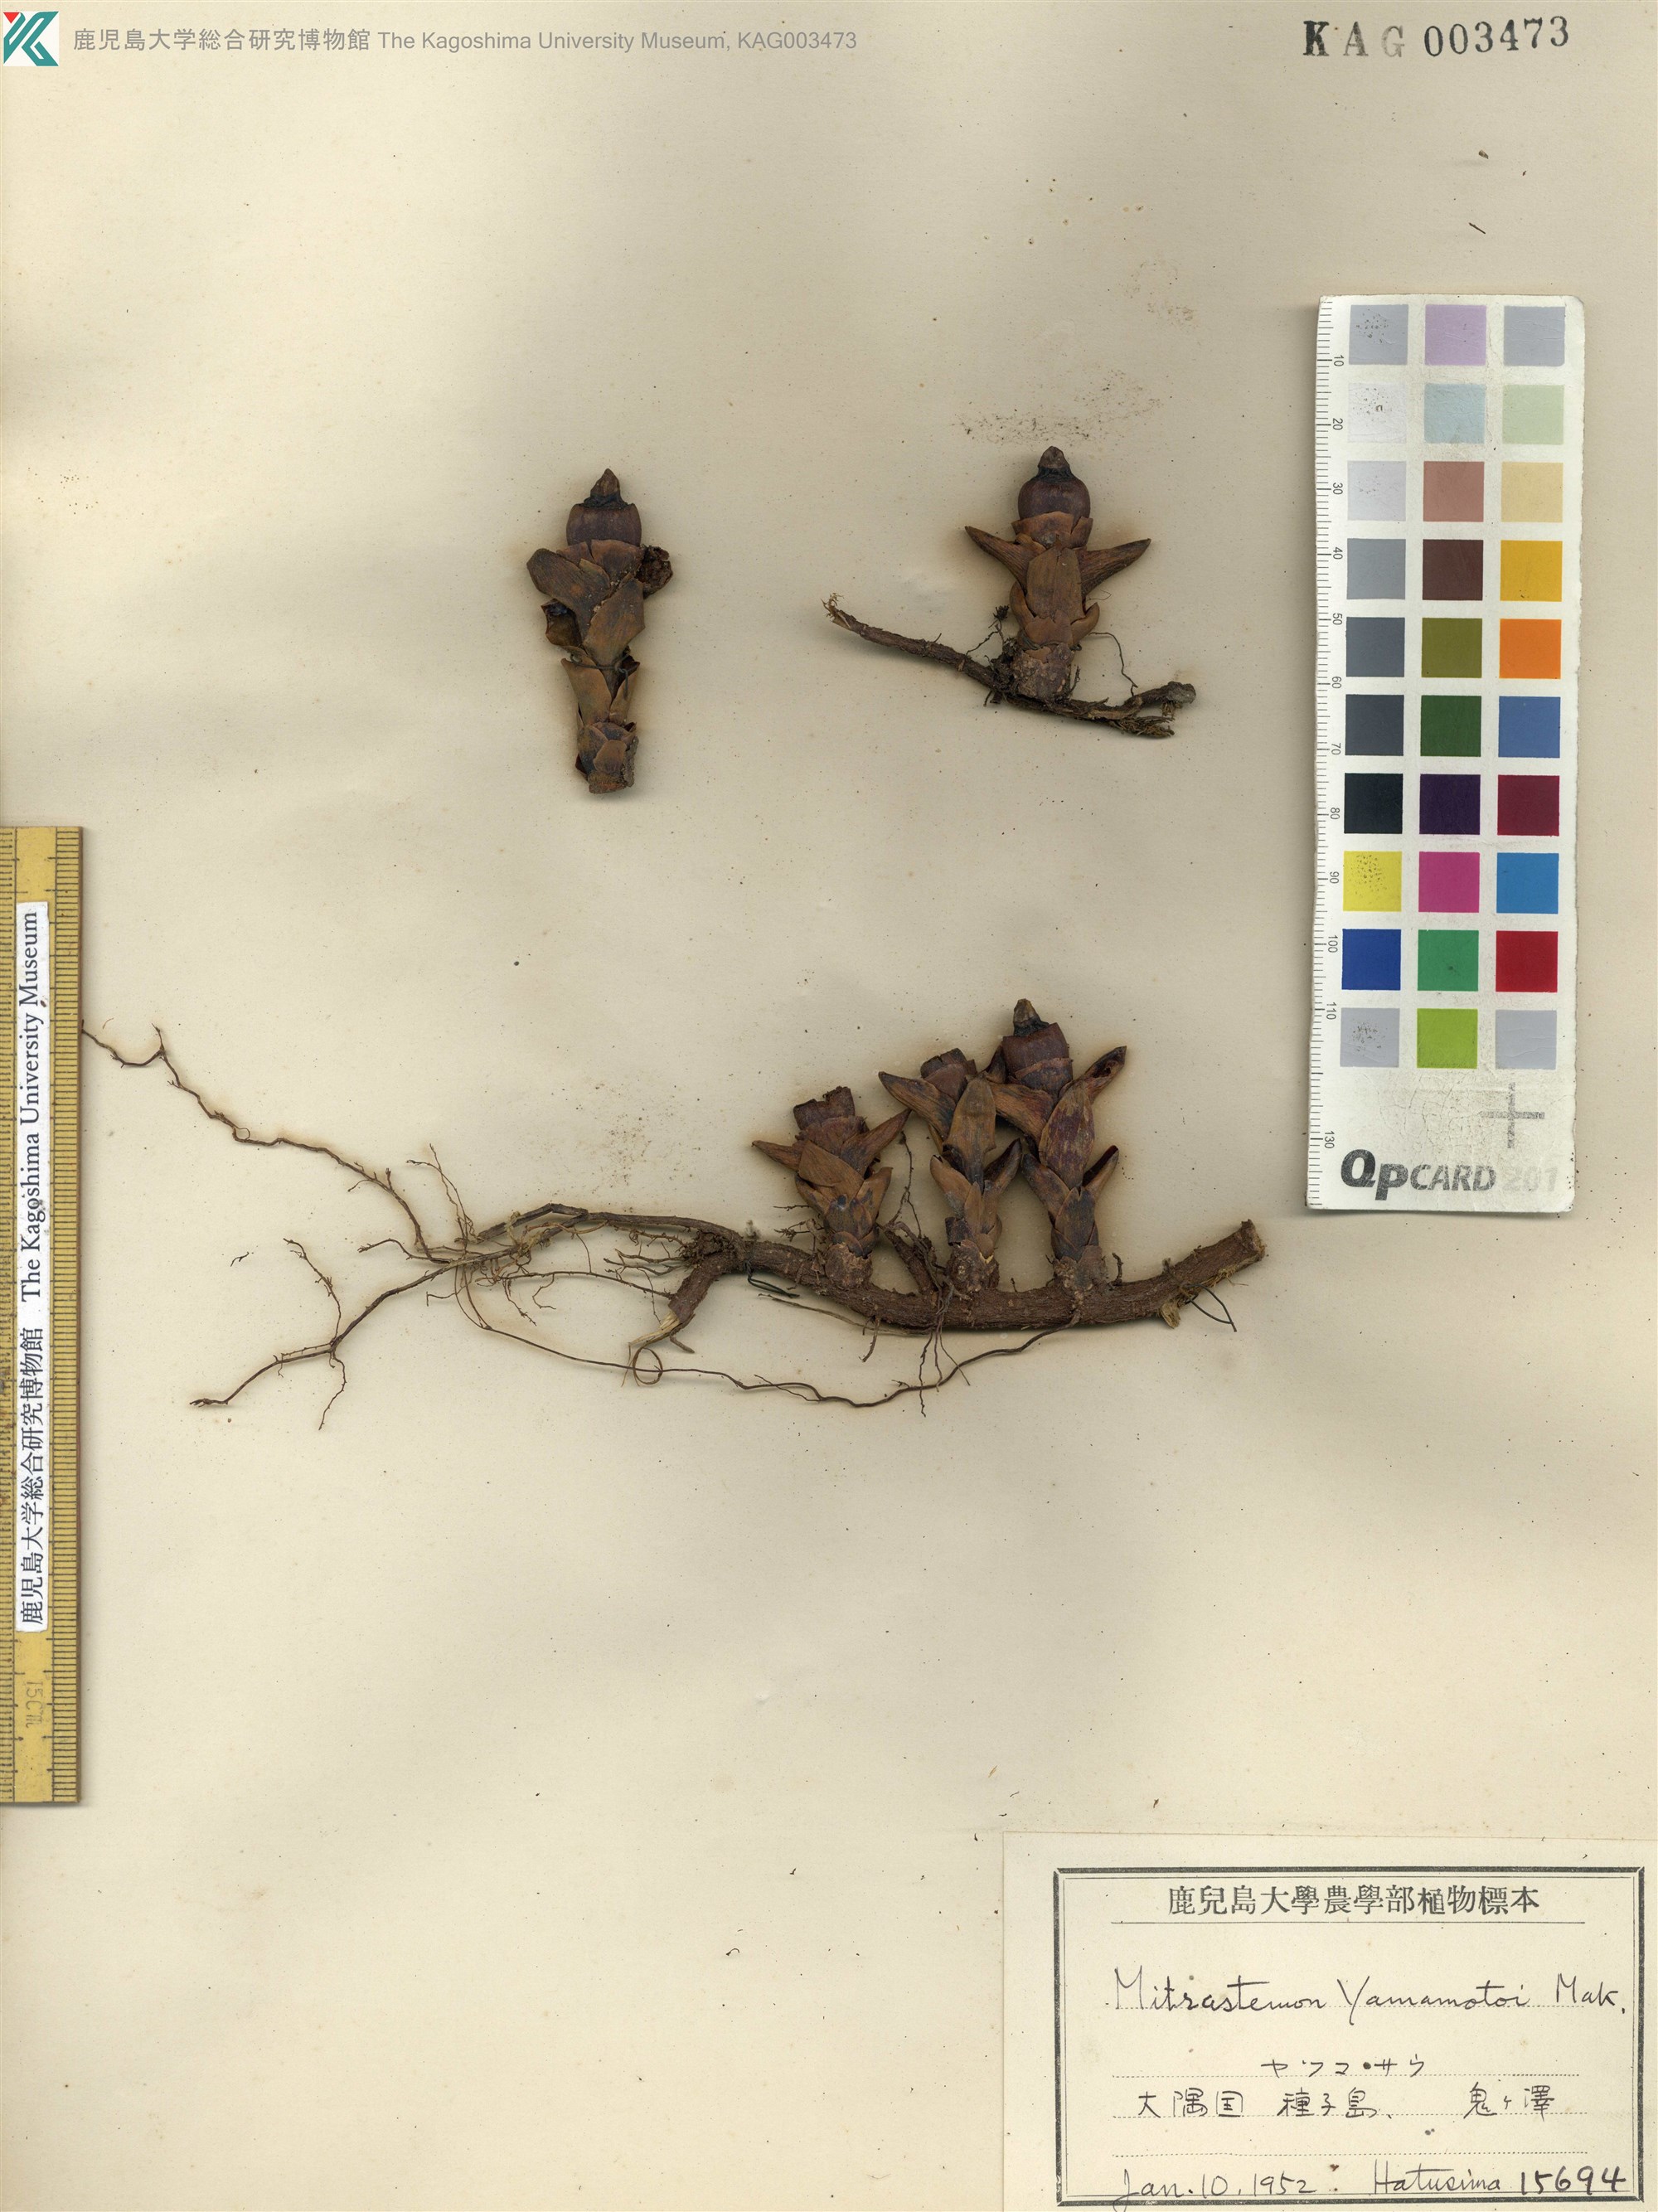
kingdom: Plantae
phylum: Tracheophyta
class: Magnoliopsida
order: Ericales
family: Mitrastemonaceae
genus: Mitrastemon
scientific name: Mitrastemon yamamotoi
